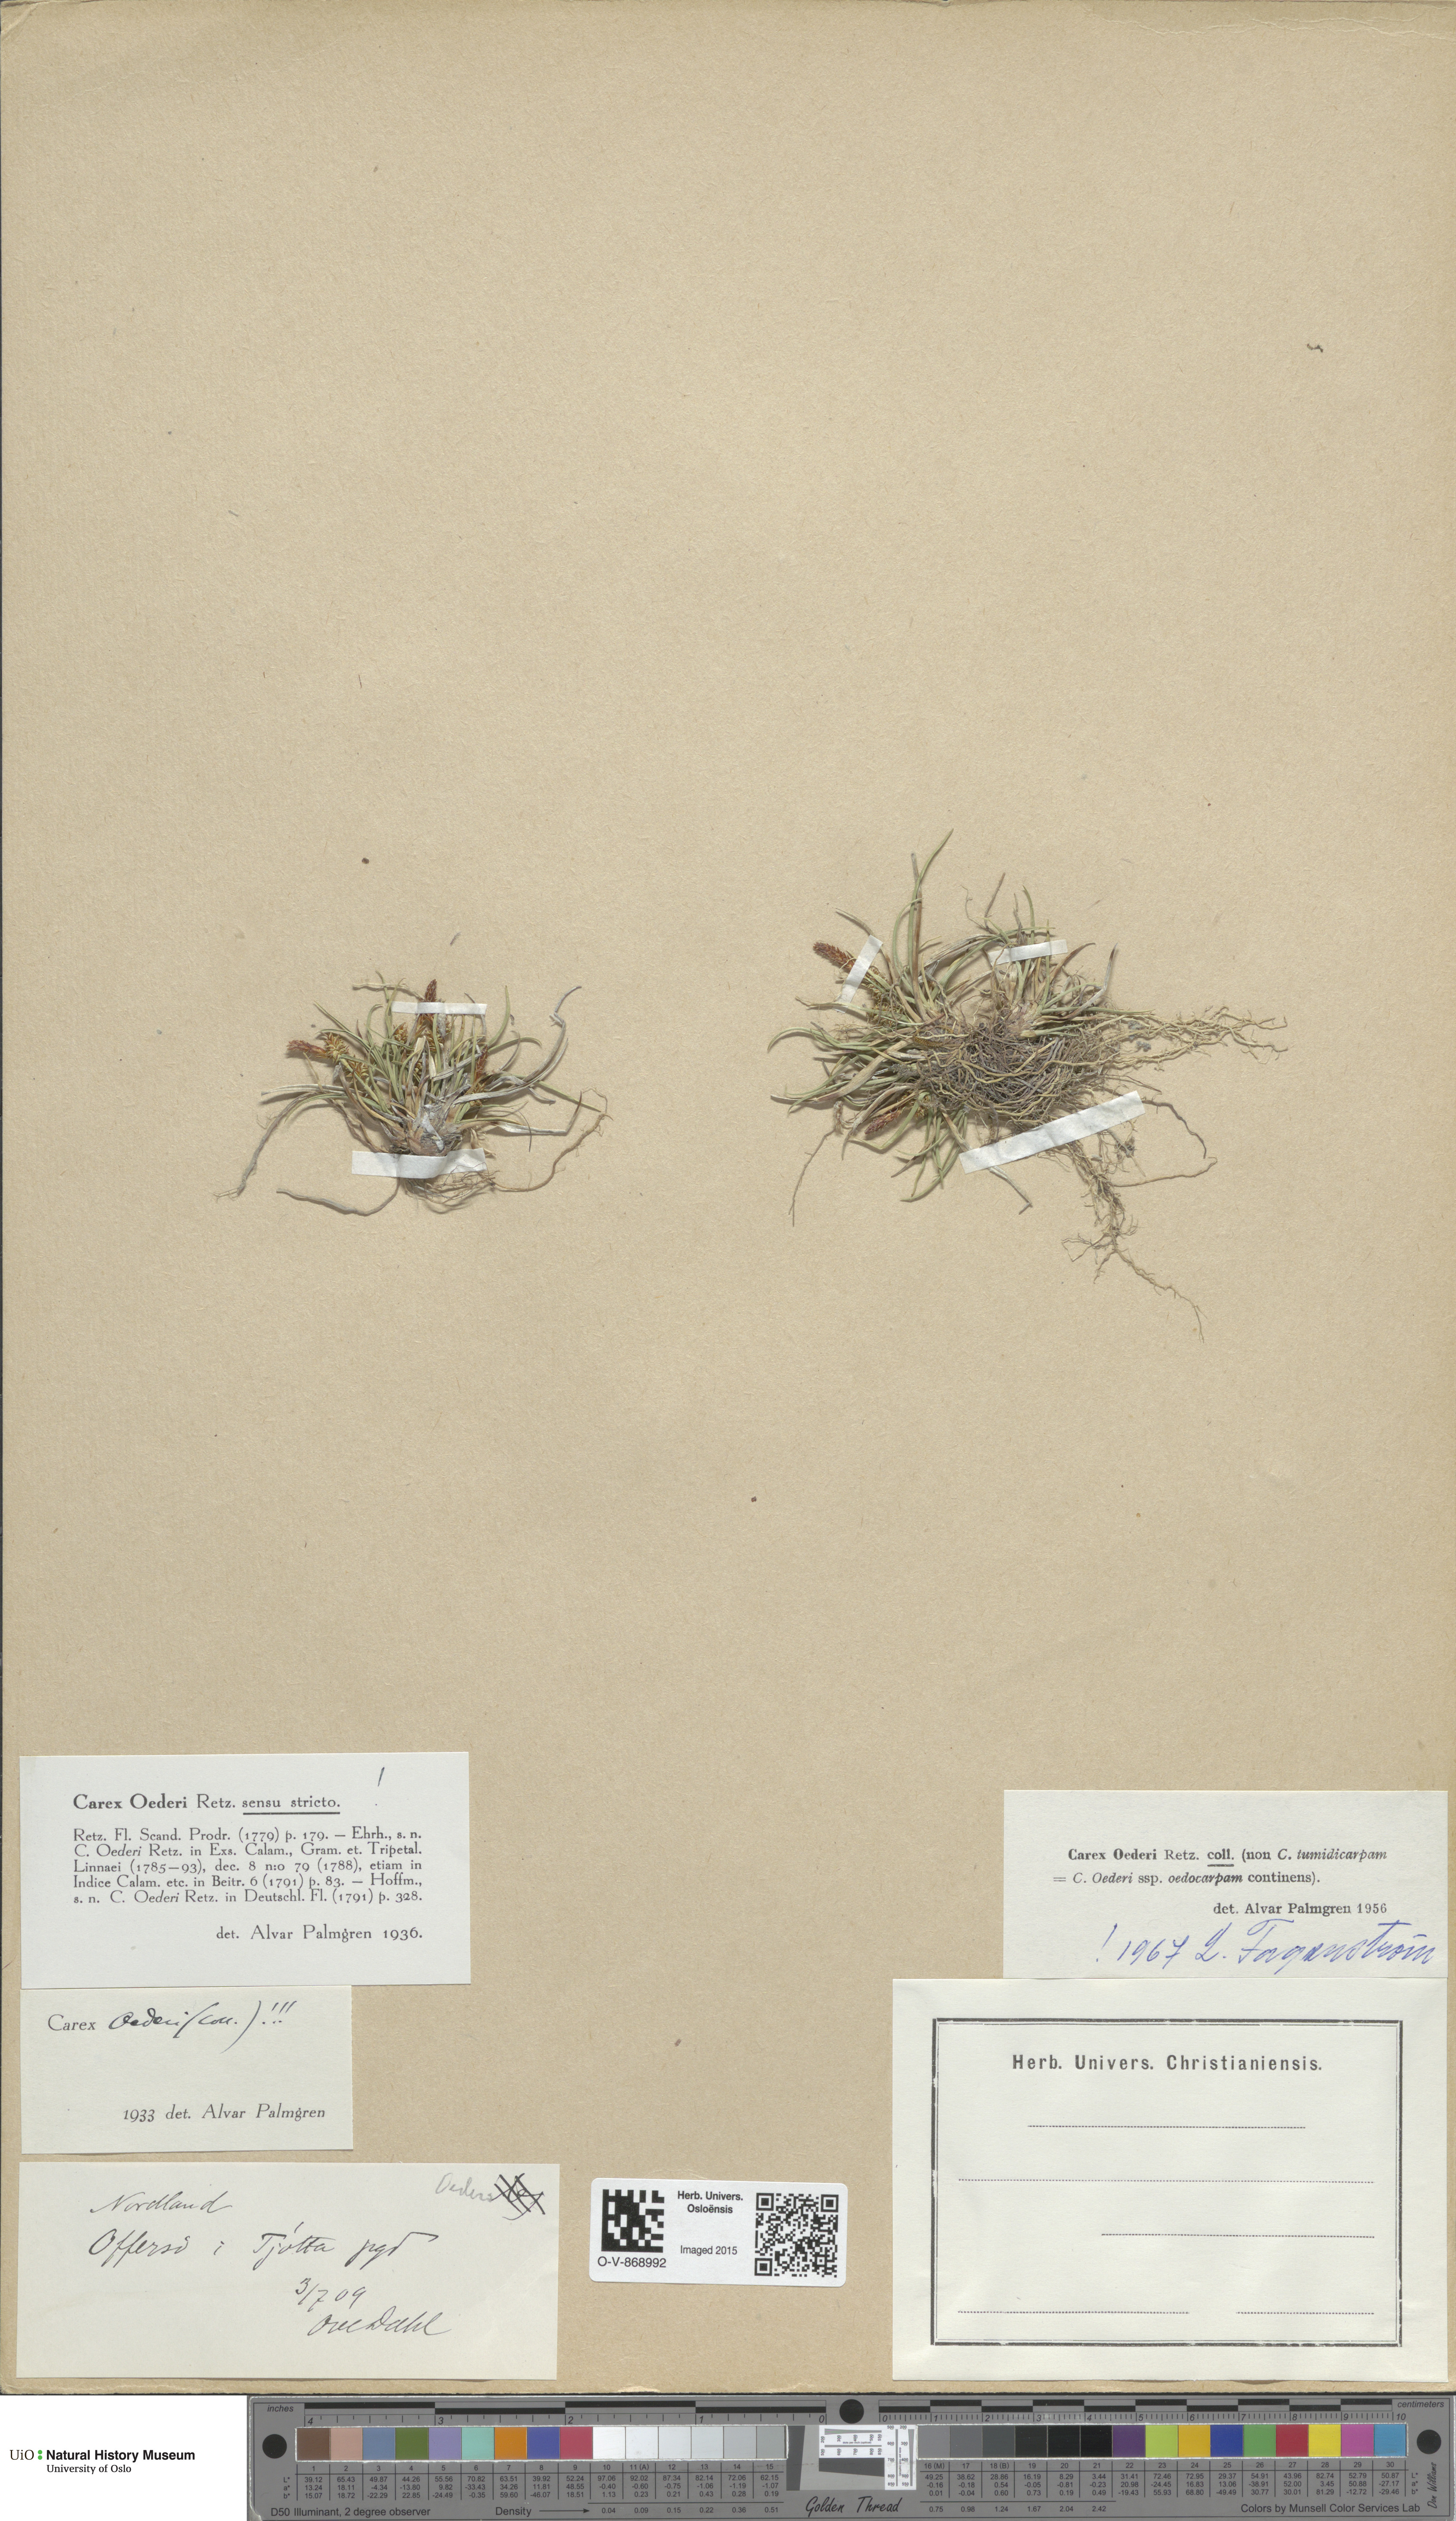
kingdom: Plantae
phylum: Tracheophyta
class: Liliopsida
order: Poales
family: Cyperaceae
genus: Carex
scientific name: Carex oederi
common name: Common & small-fruited yellow-sedge
